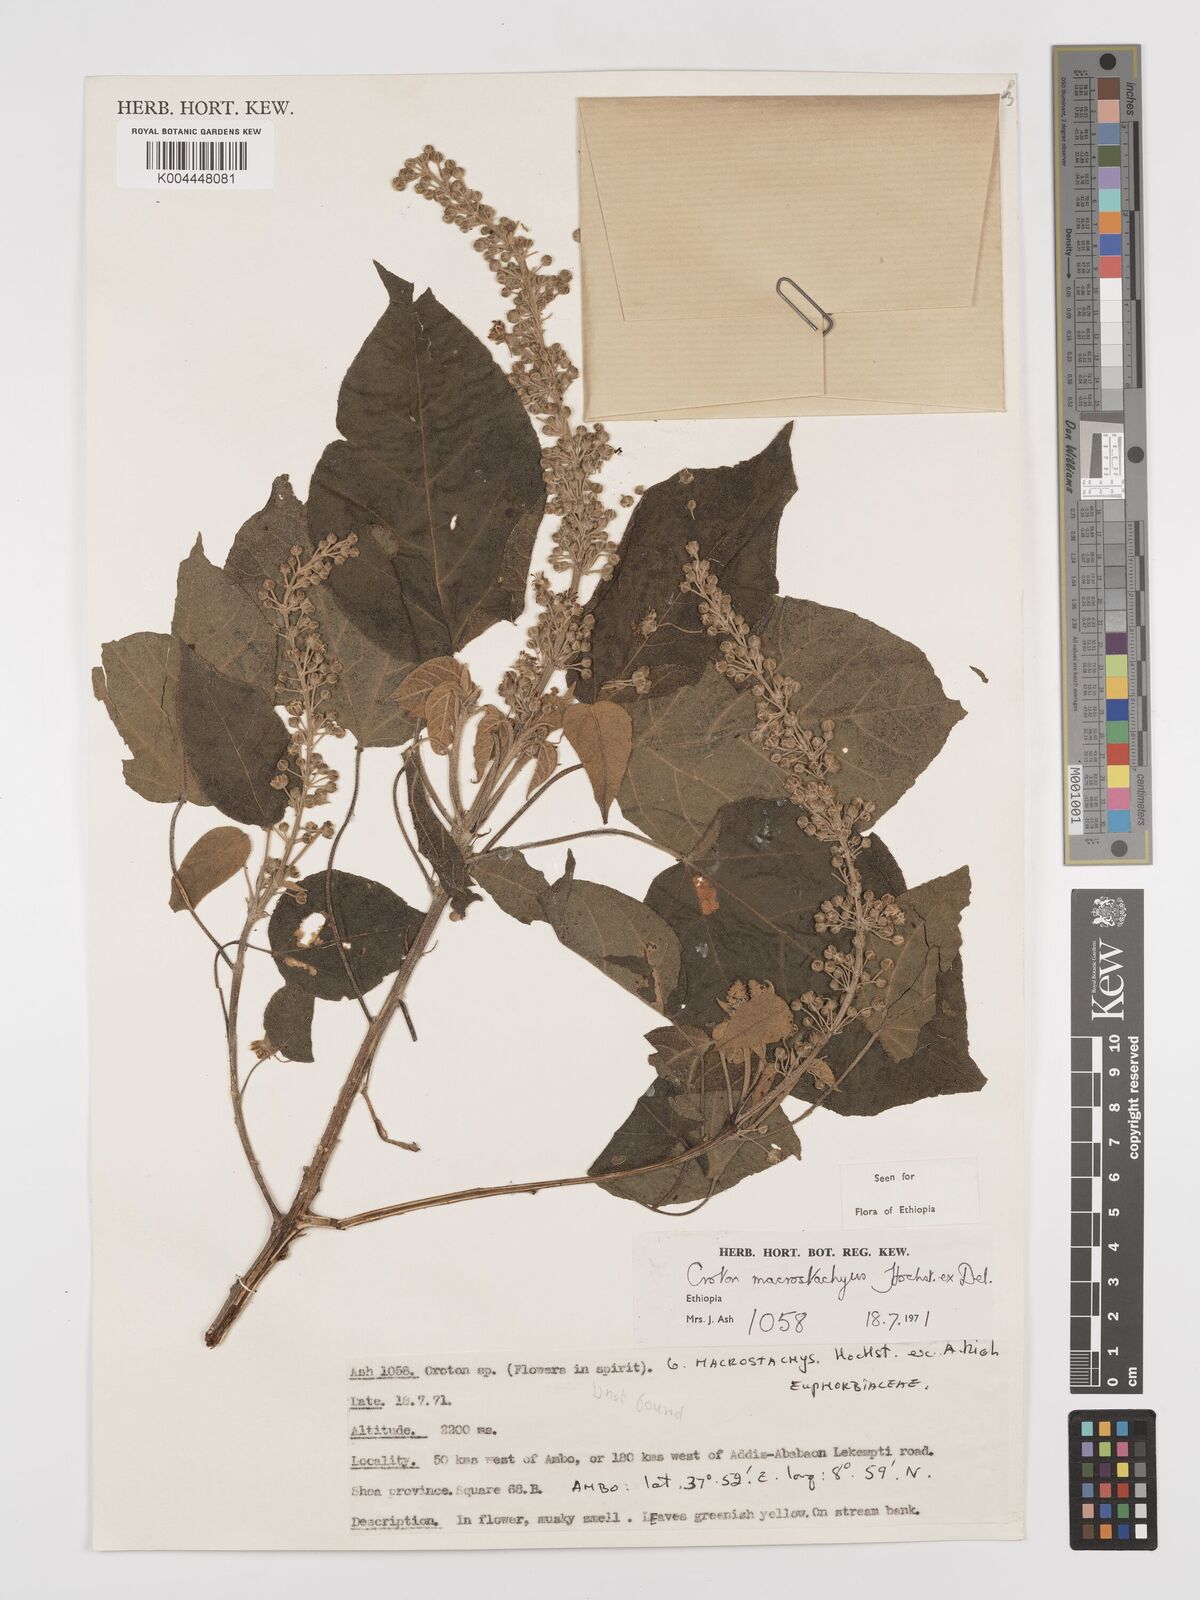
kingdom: Plantae
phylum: Tracheophyta
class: Magnoliopsida
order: Malpighiales
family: Euphorbiaceae
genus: Croton
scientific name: Croton macrostachyus
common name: Mutundu
